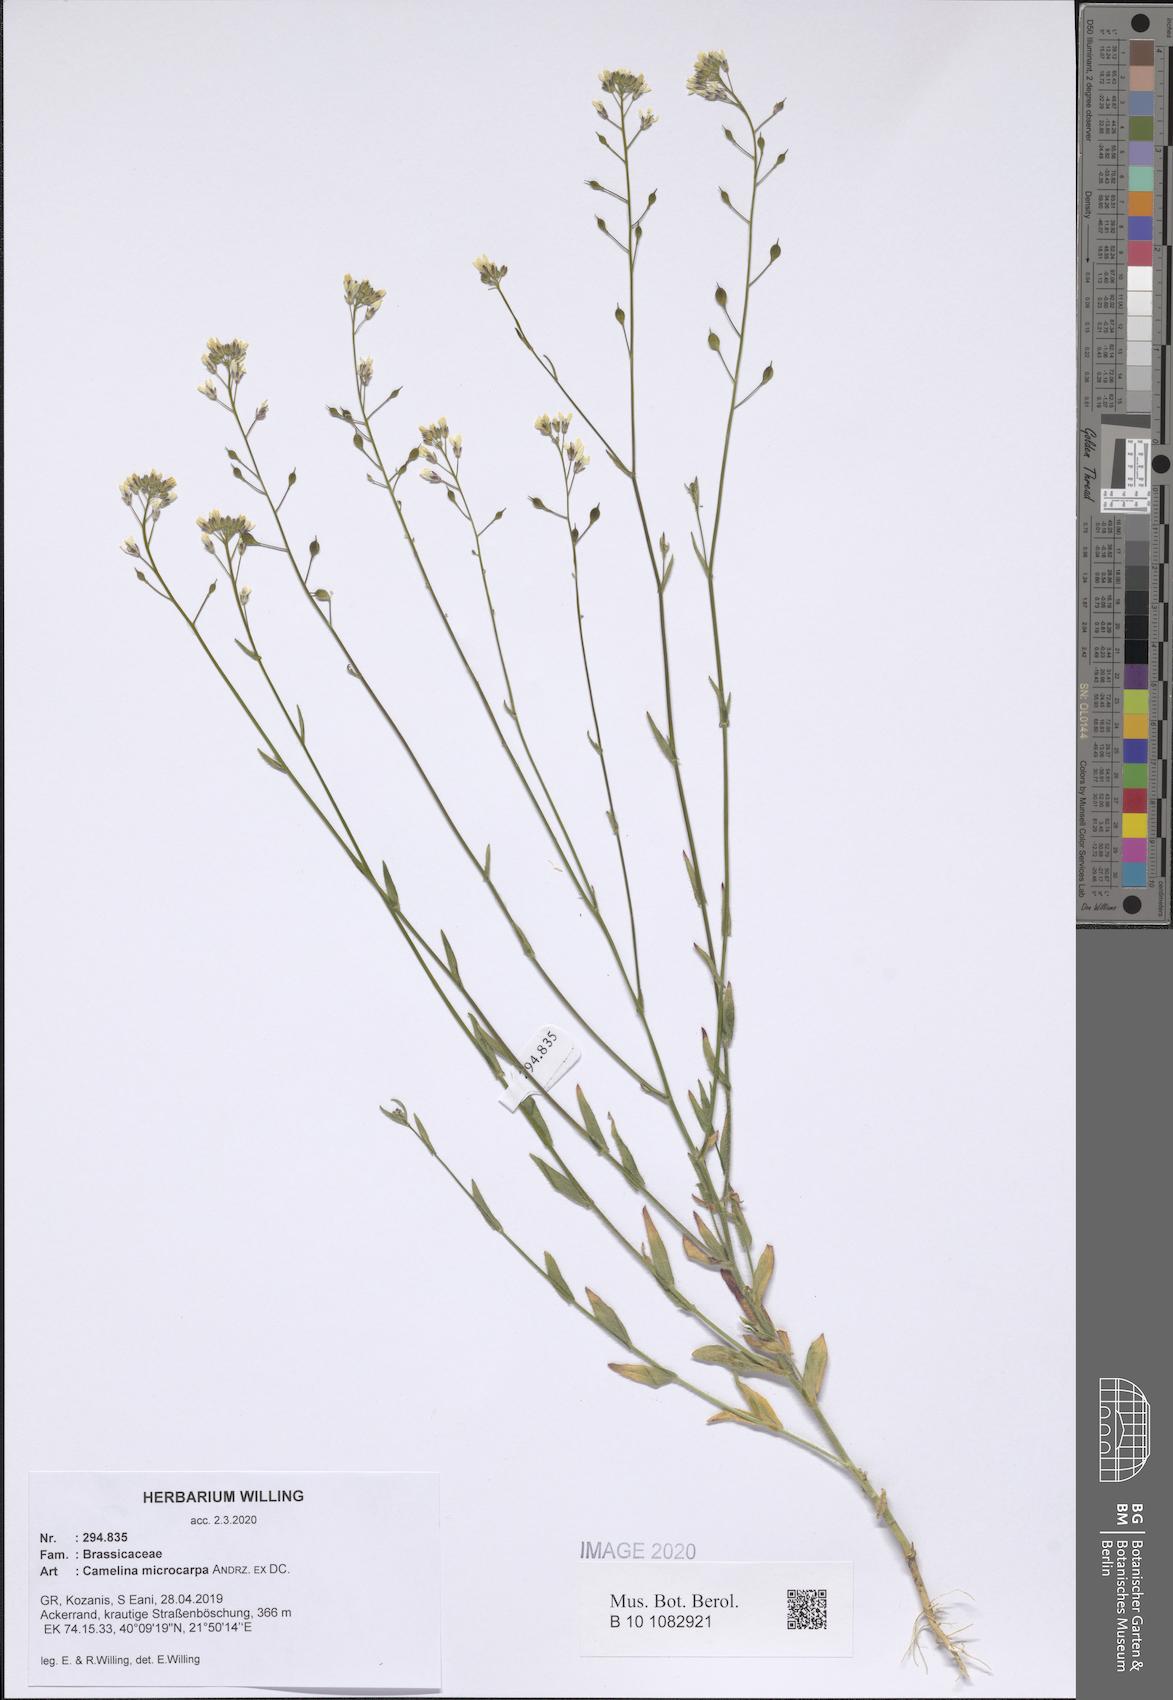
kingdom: Plantae
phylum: Tracheophyta
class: Magnoliopsida
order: Brassicales
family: Brassicaceae
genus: Camelina
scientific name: Camelina microcarpa
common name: Lesser gold-of-pleasure
